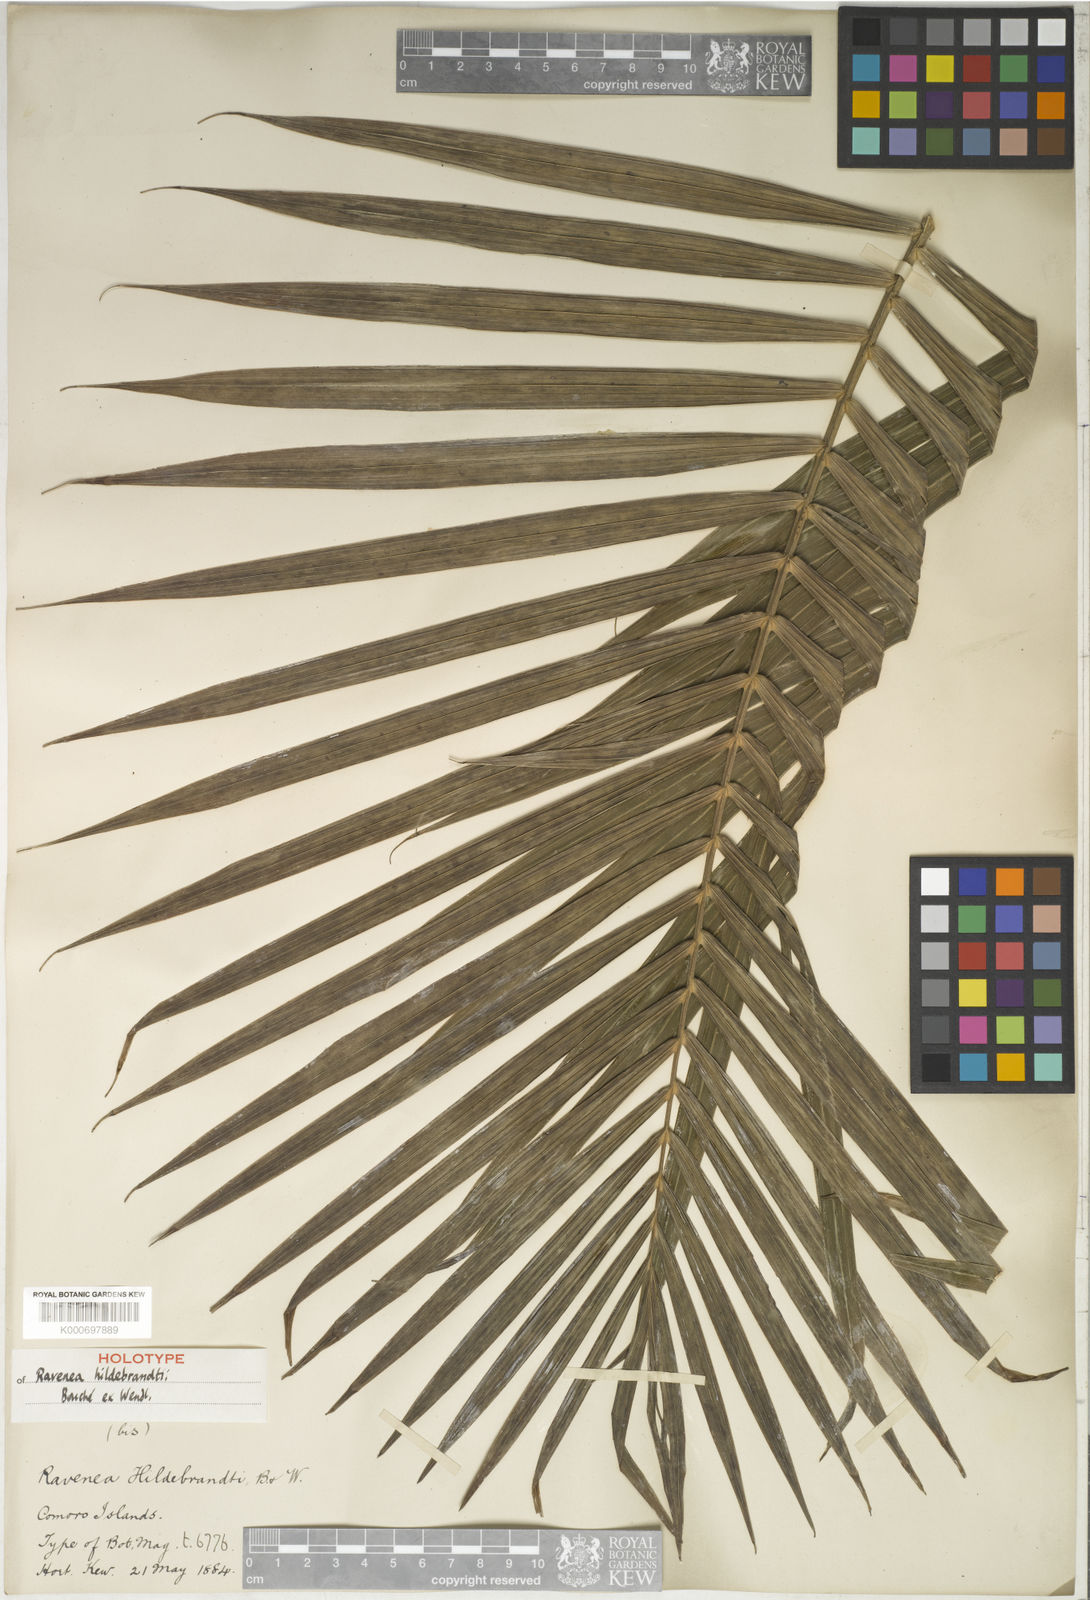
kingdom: Plantae
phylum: Tracheophyta
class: Liliopsida
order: Arecales
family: Arecaceae
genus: Ravenea
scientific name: Ravenea hildebrandtii
